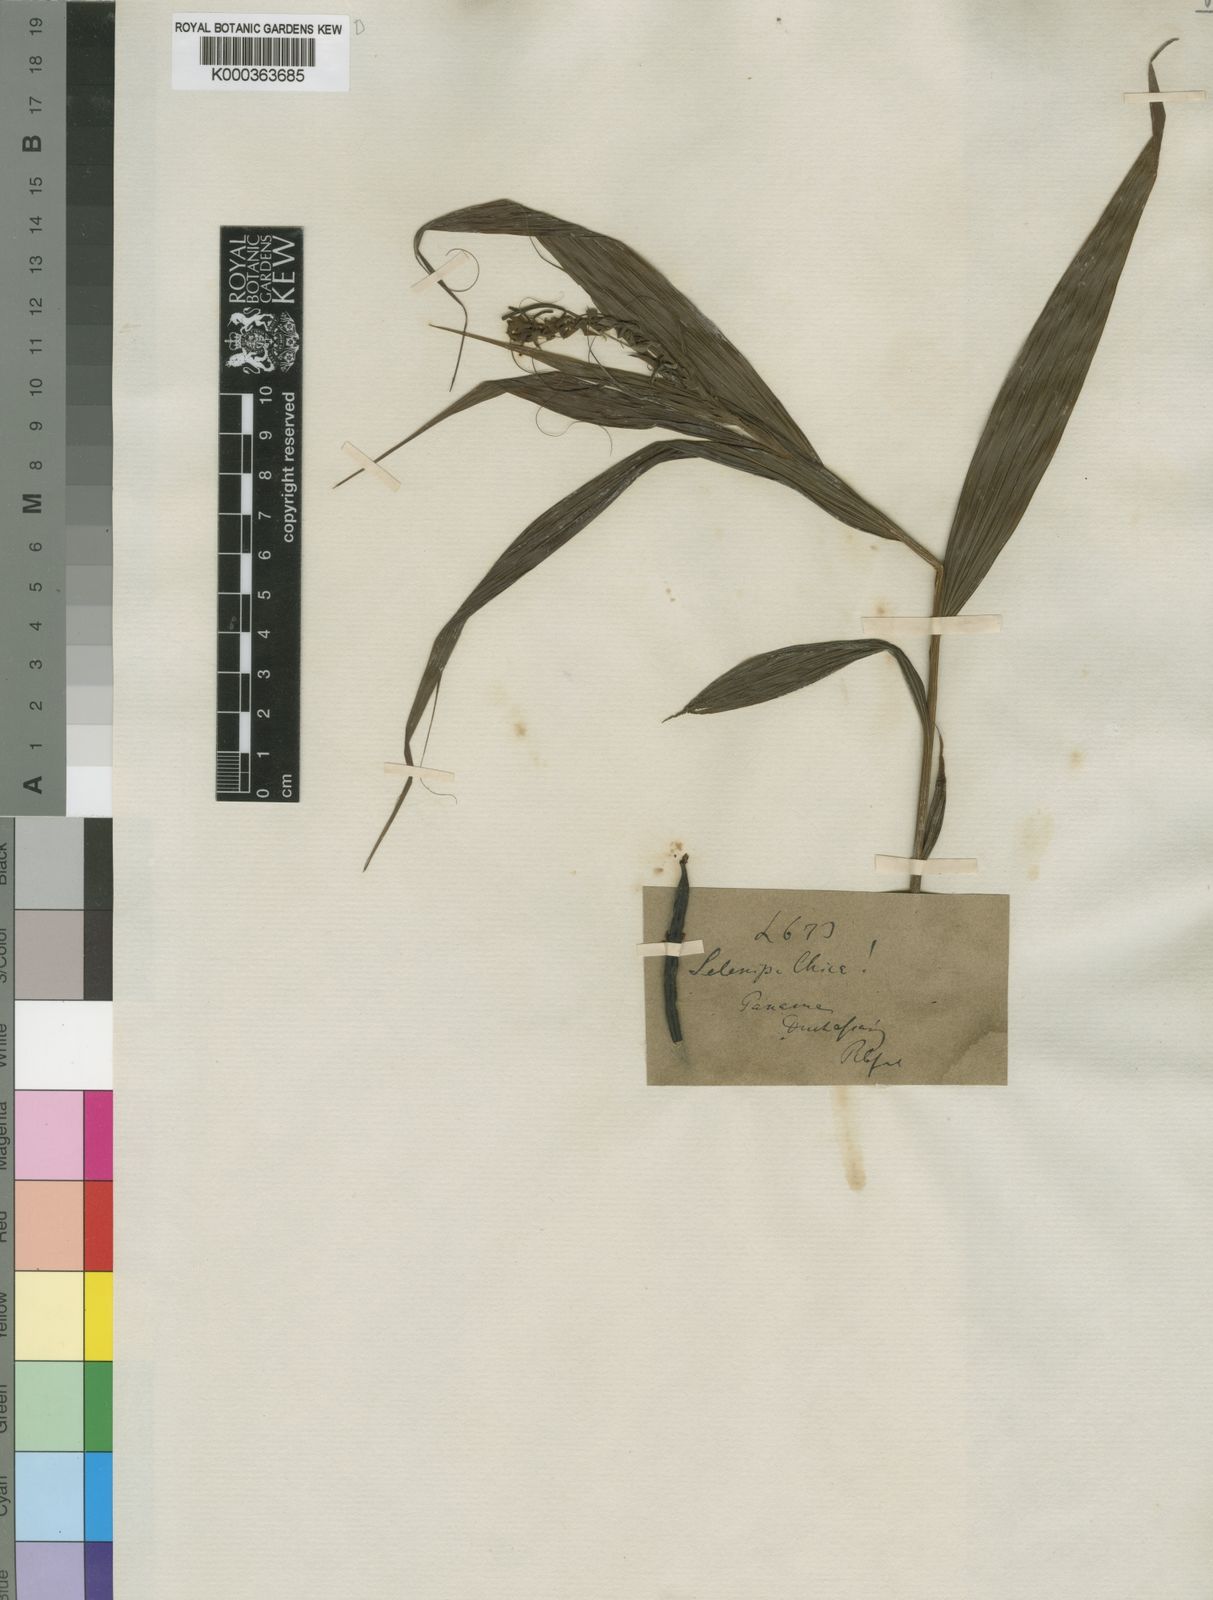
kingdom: Plantae
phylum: Tracheophyta
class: Liliopsida
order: Asparagales
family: Orchidaceae
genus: Selenipedium
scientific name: Selenipedium chica
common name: Beautiful selenipedium
